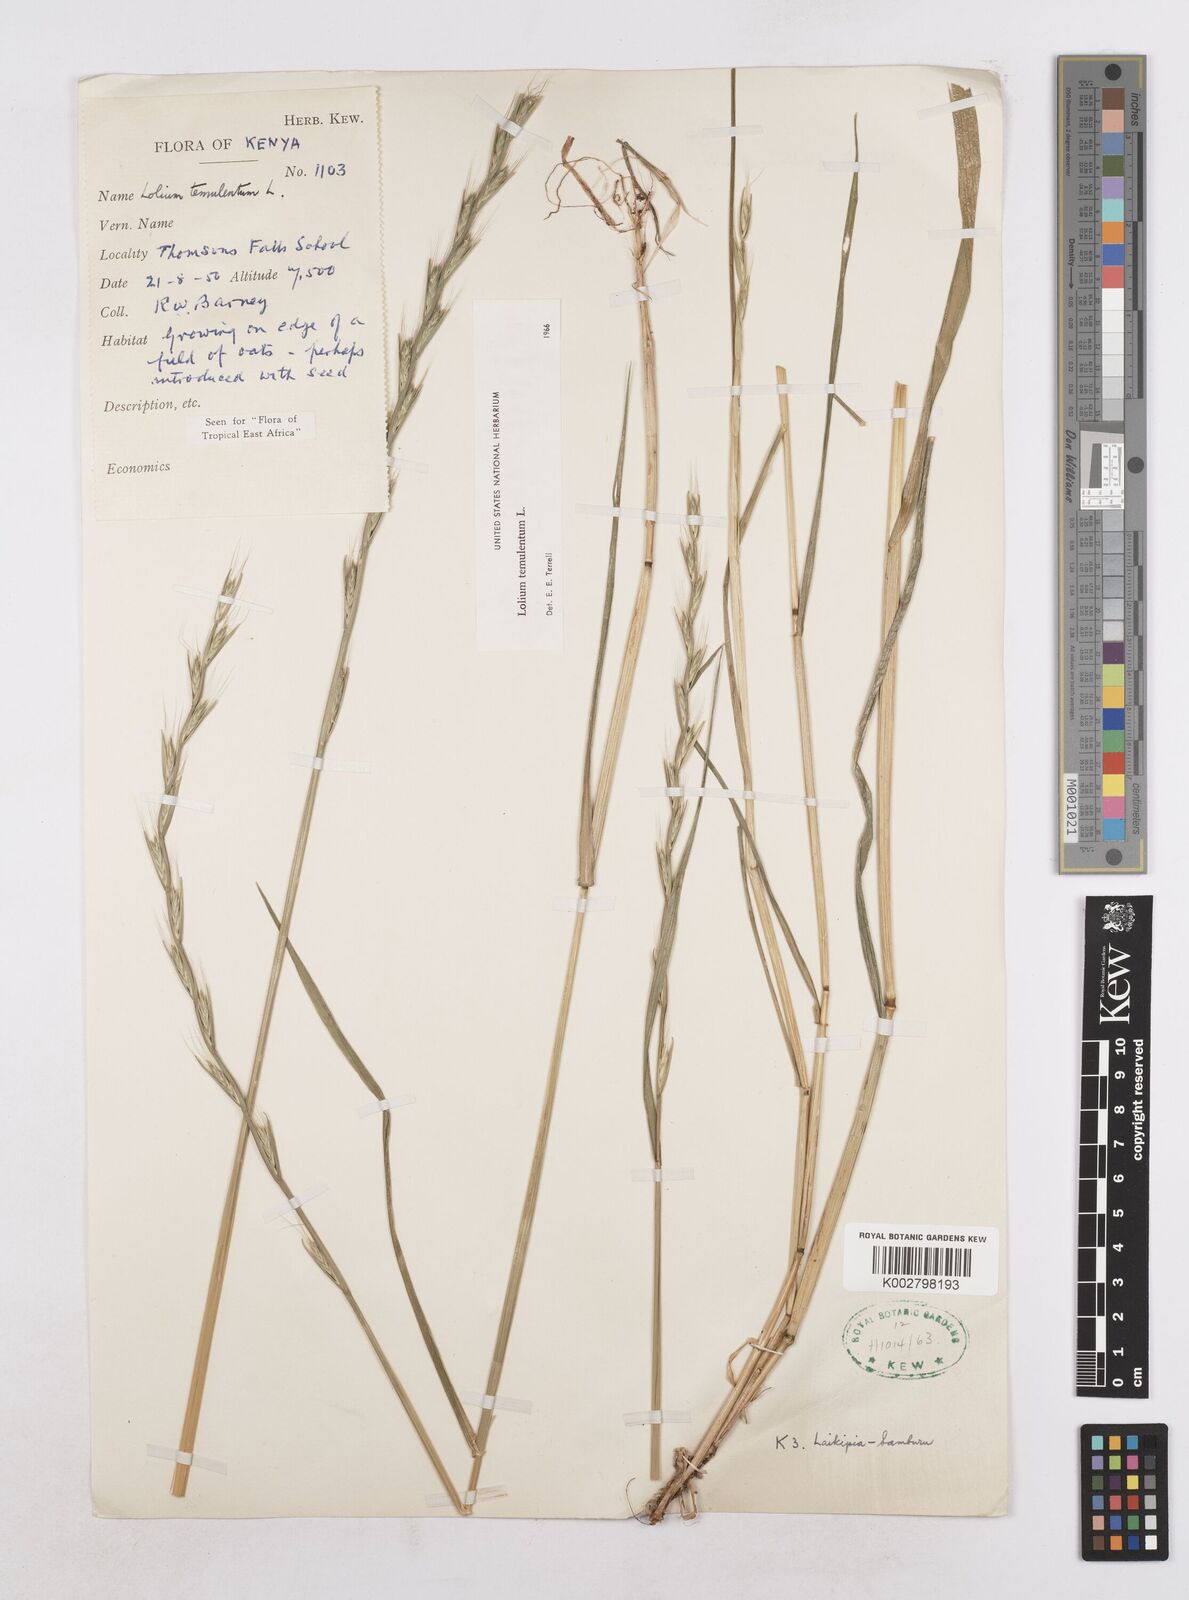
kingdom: Plantae
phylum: Tracheophyta
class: Liliopsida
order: Poales
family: Poaceae
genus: Lolium
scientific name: Lolium temulentum
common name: Darnel
